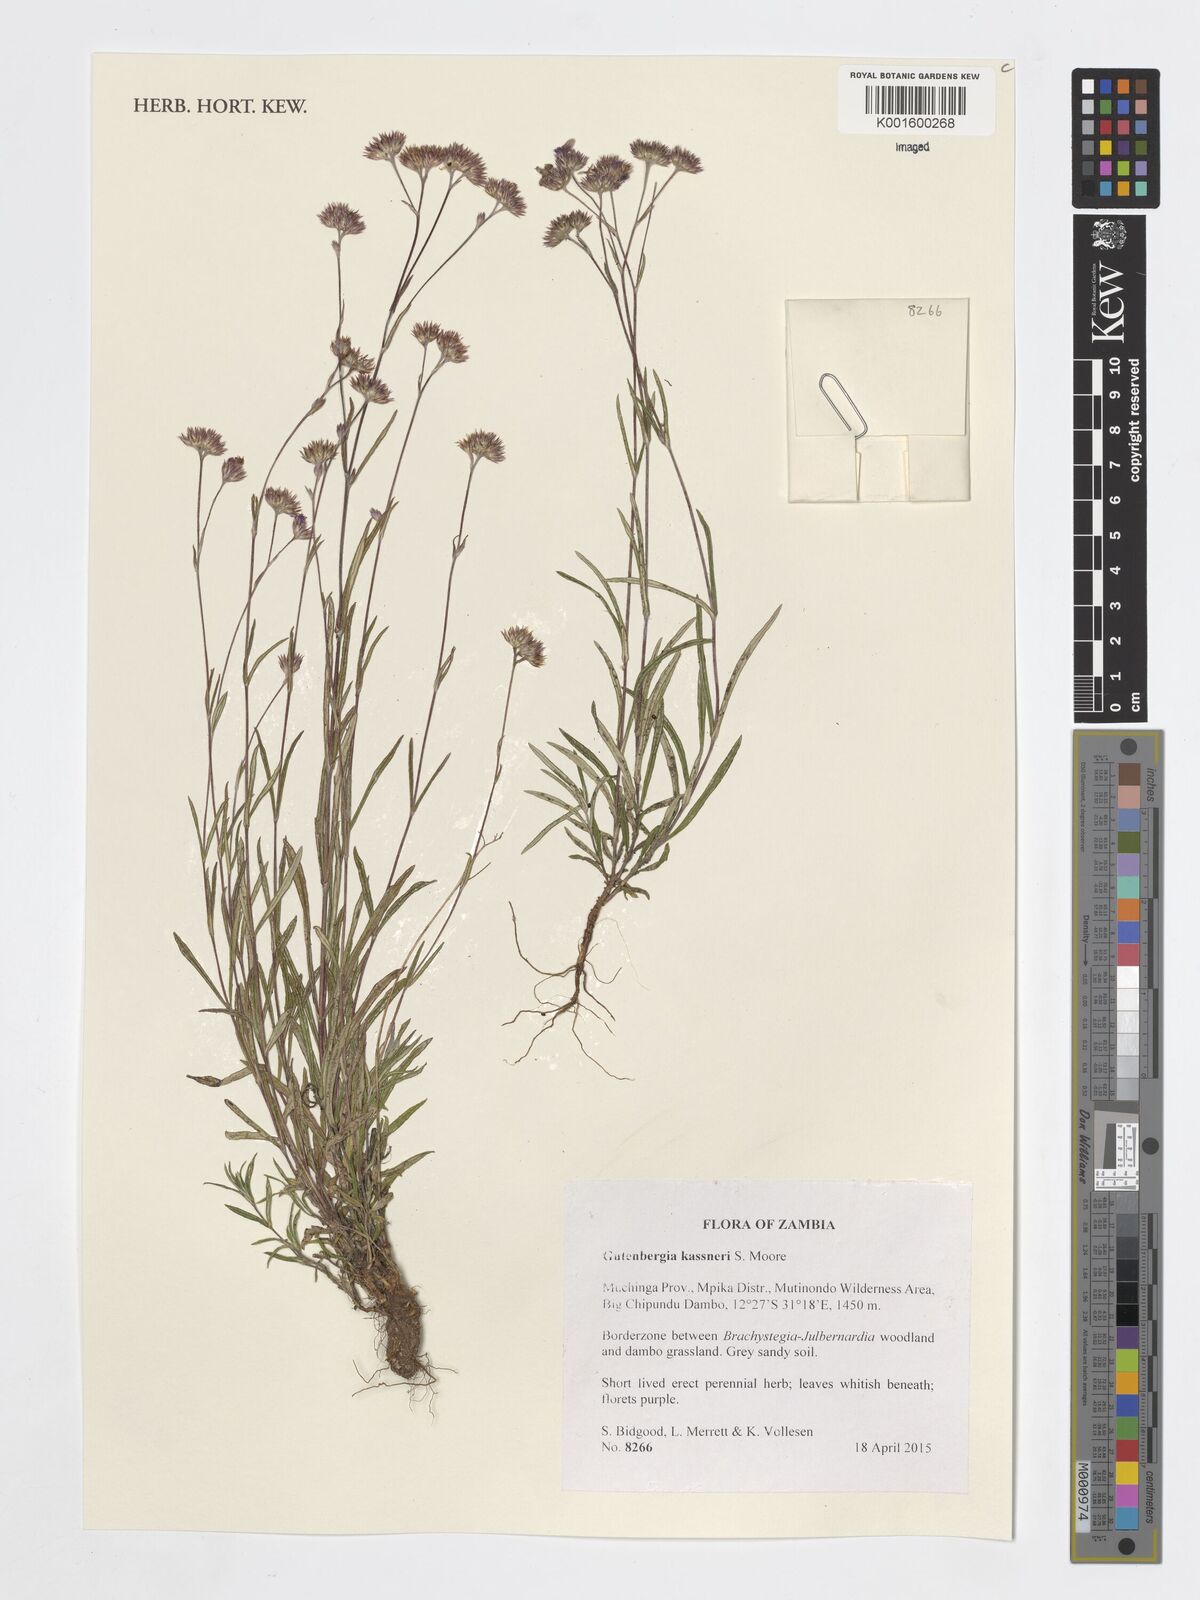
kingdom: Plantae
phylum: Tracheophyta
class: Magnoliopsida
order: Asterales
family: Asteraceae
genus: Gutenbergia
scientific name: Gutenbergia kassneri
